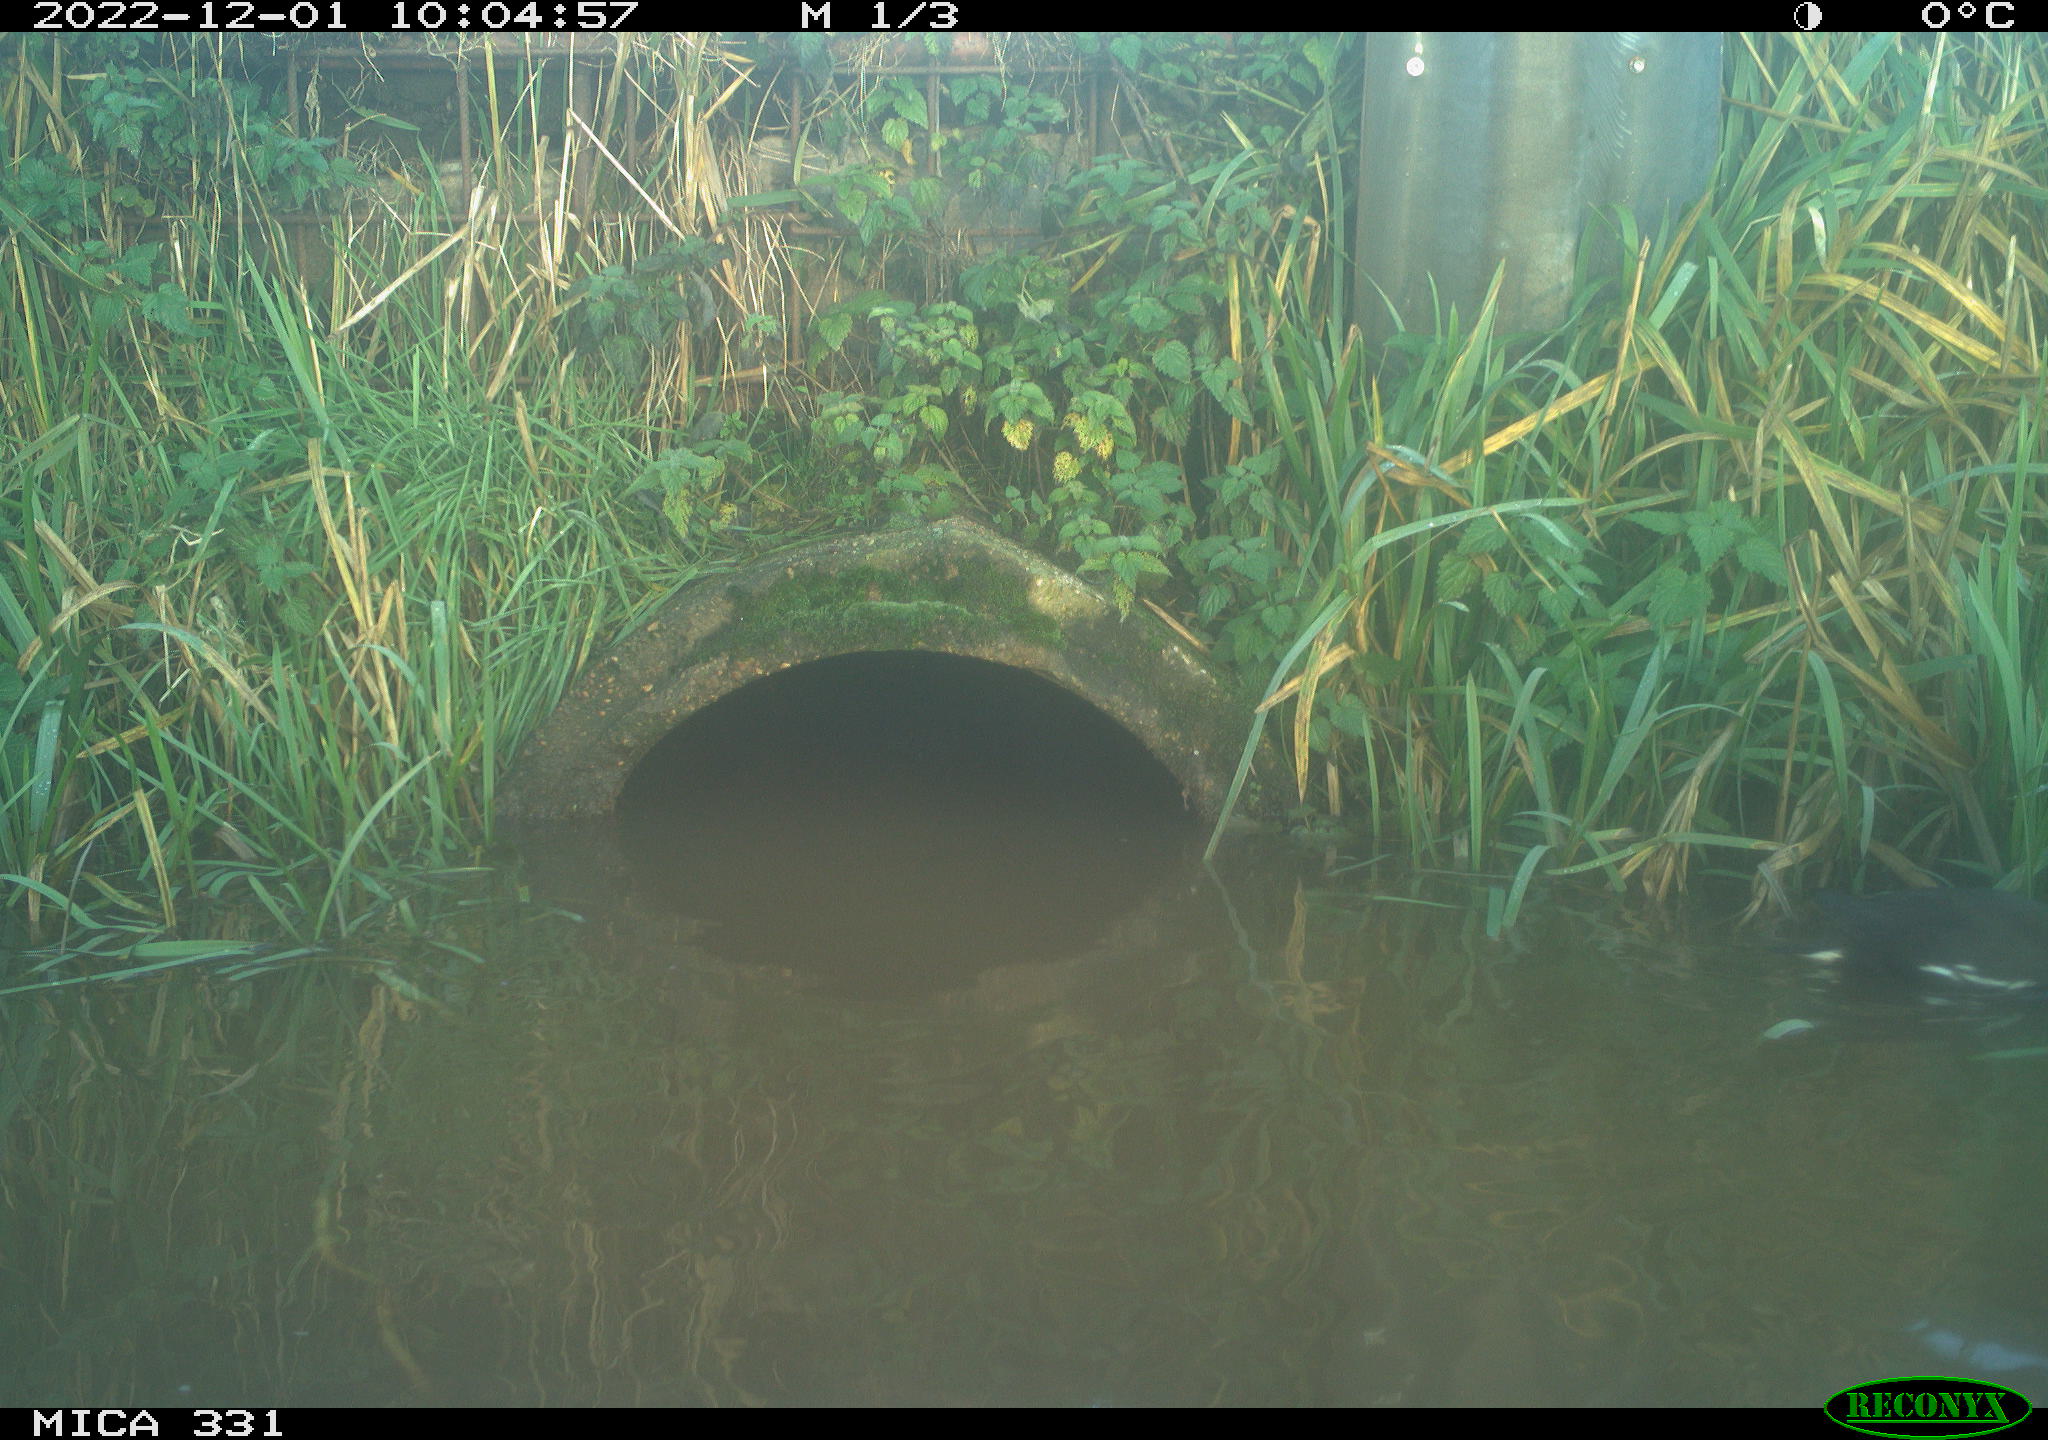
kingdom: Animalia
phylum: Chordata
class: Aves
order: Gruiformes
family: Rallidae
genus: Gallinula
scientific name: Gallinula chloropus
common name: Common moorhen
